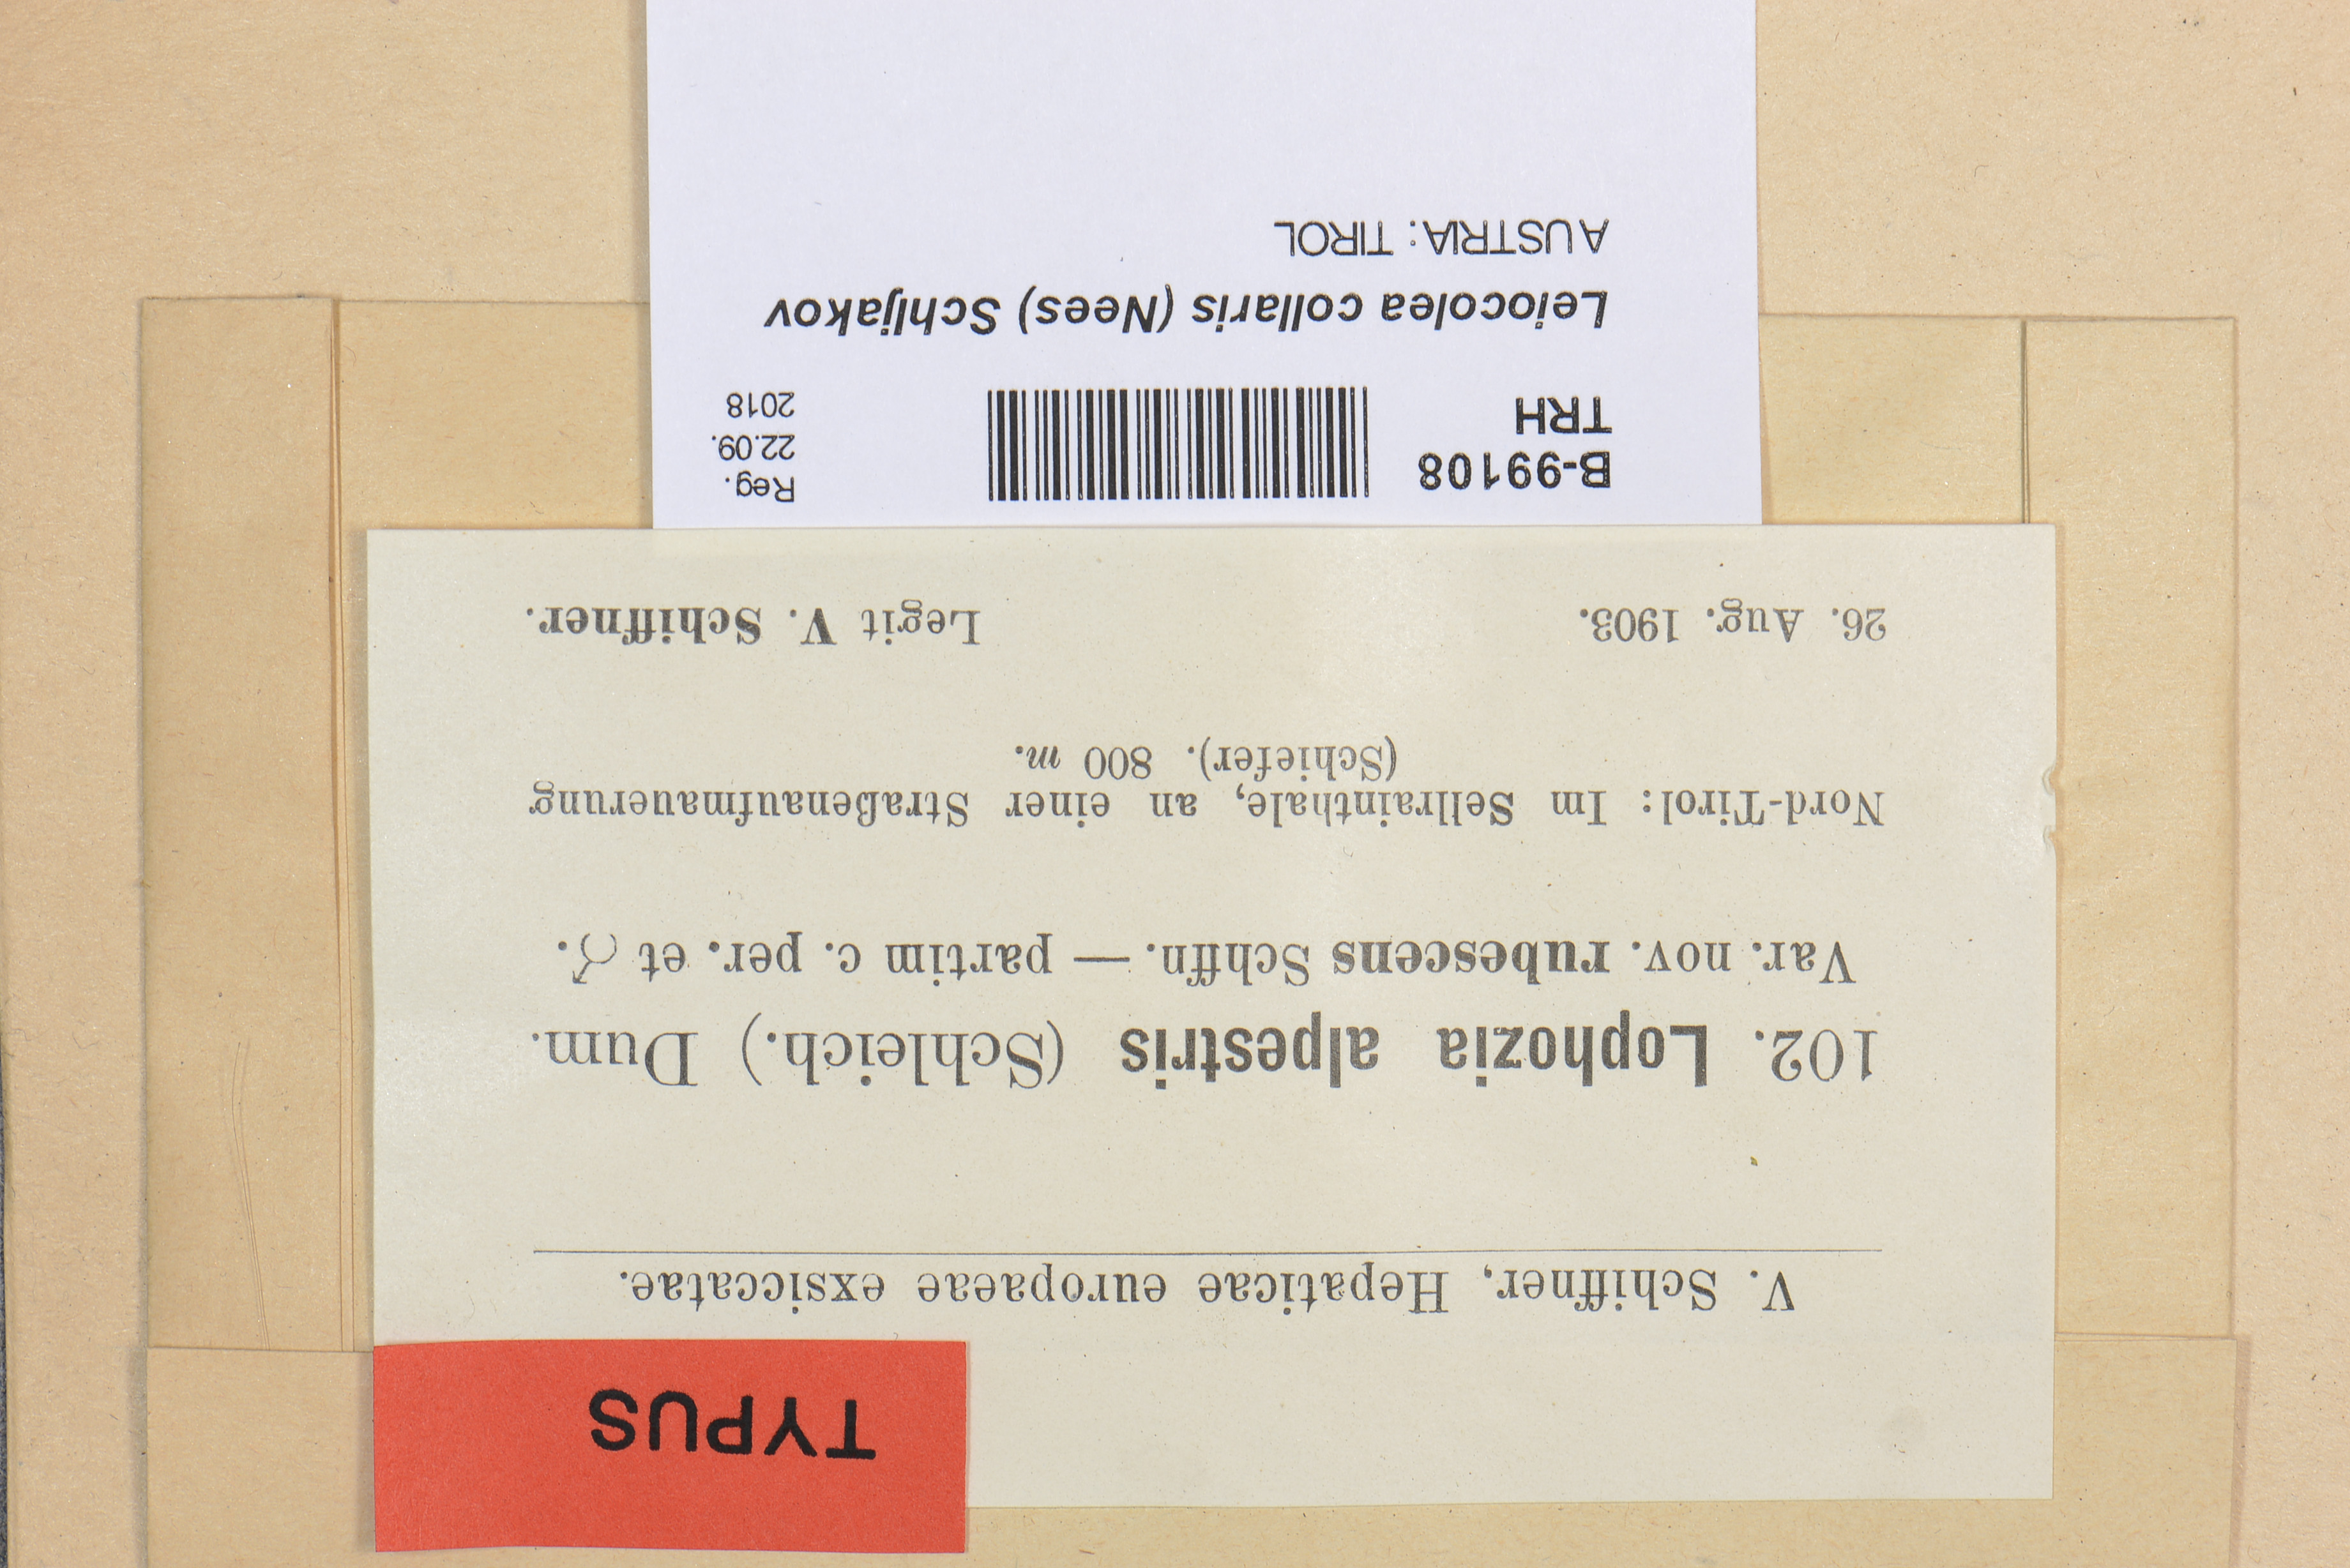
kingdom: Plantae
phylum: Marchantiophyta
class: Jungermanniopsida
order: Jungermanniales
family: Jungermanniaceae
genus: Mesoptychia
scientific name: Mesoptychia collaris
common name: Collared notchwort
